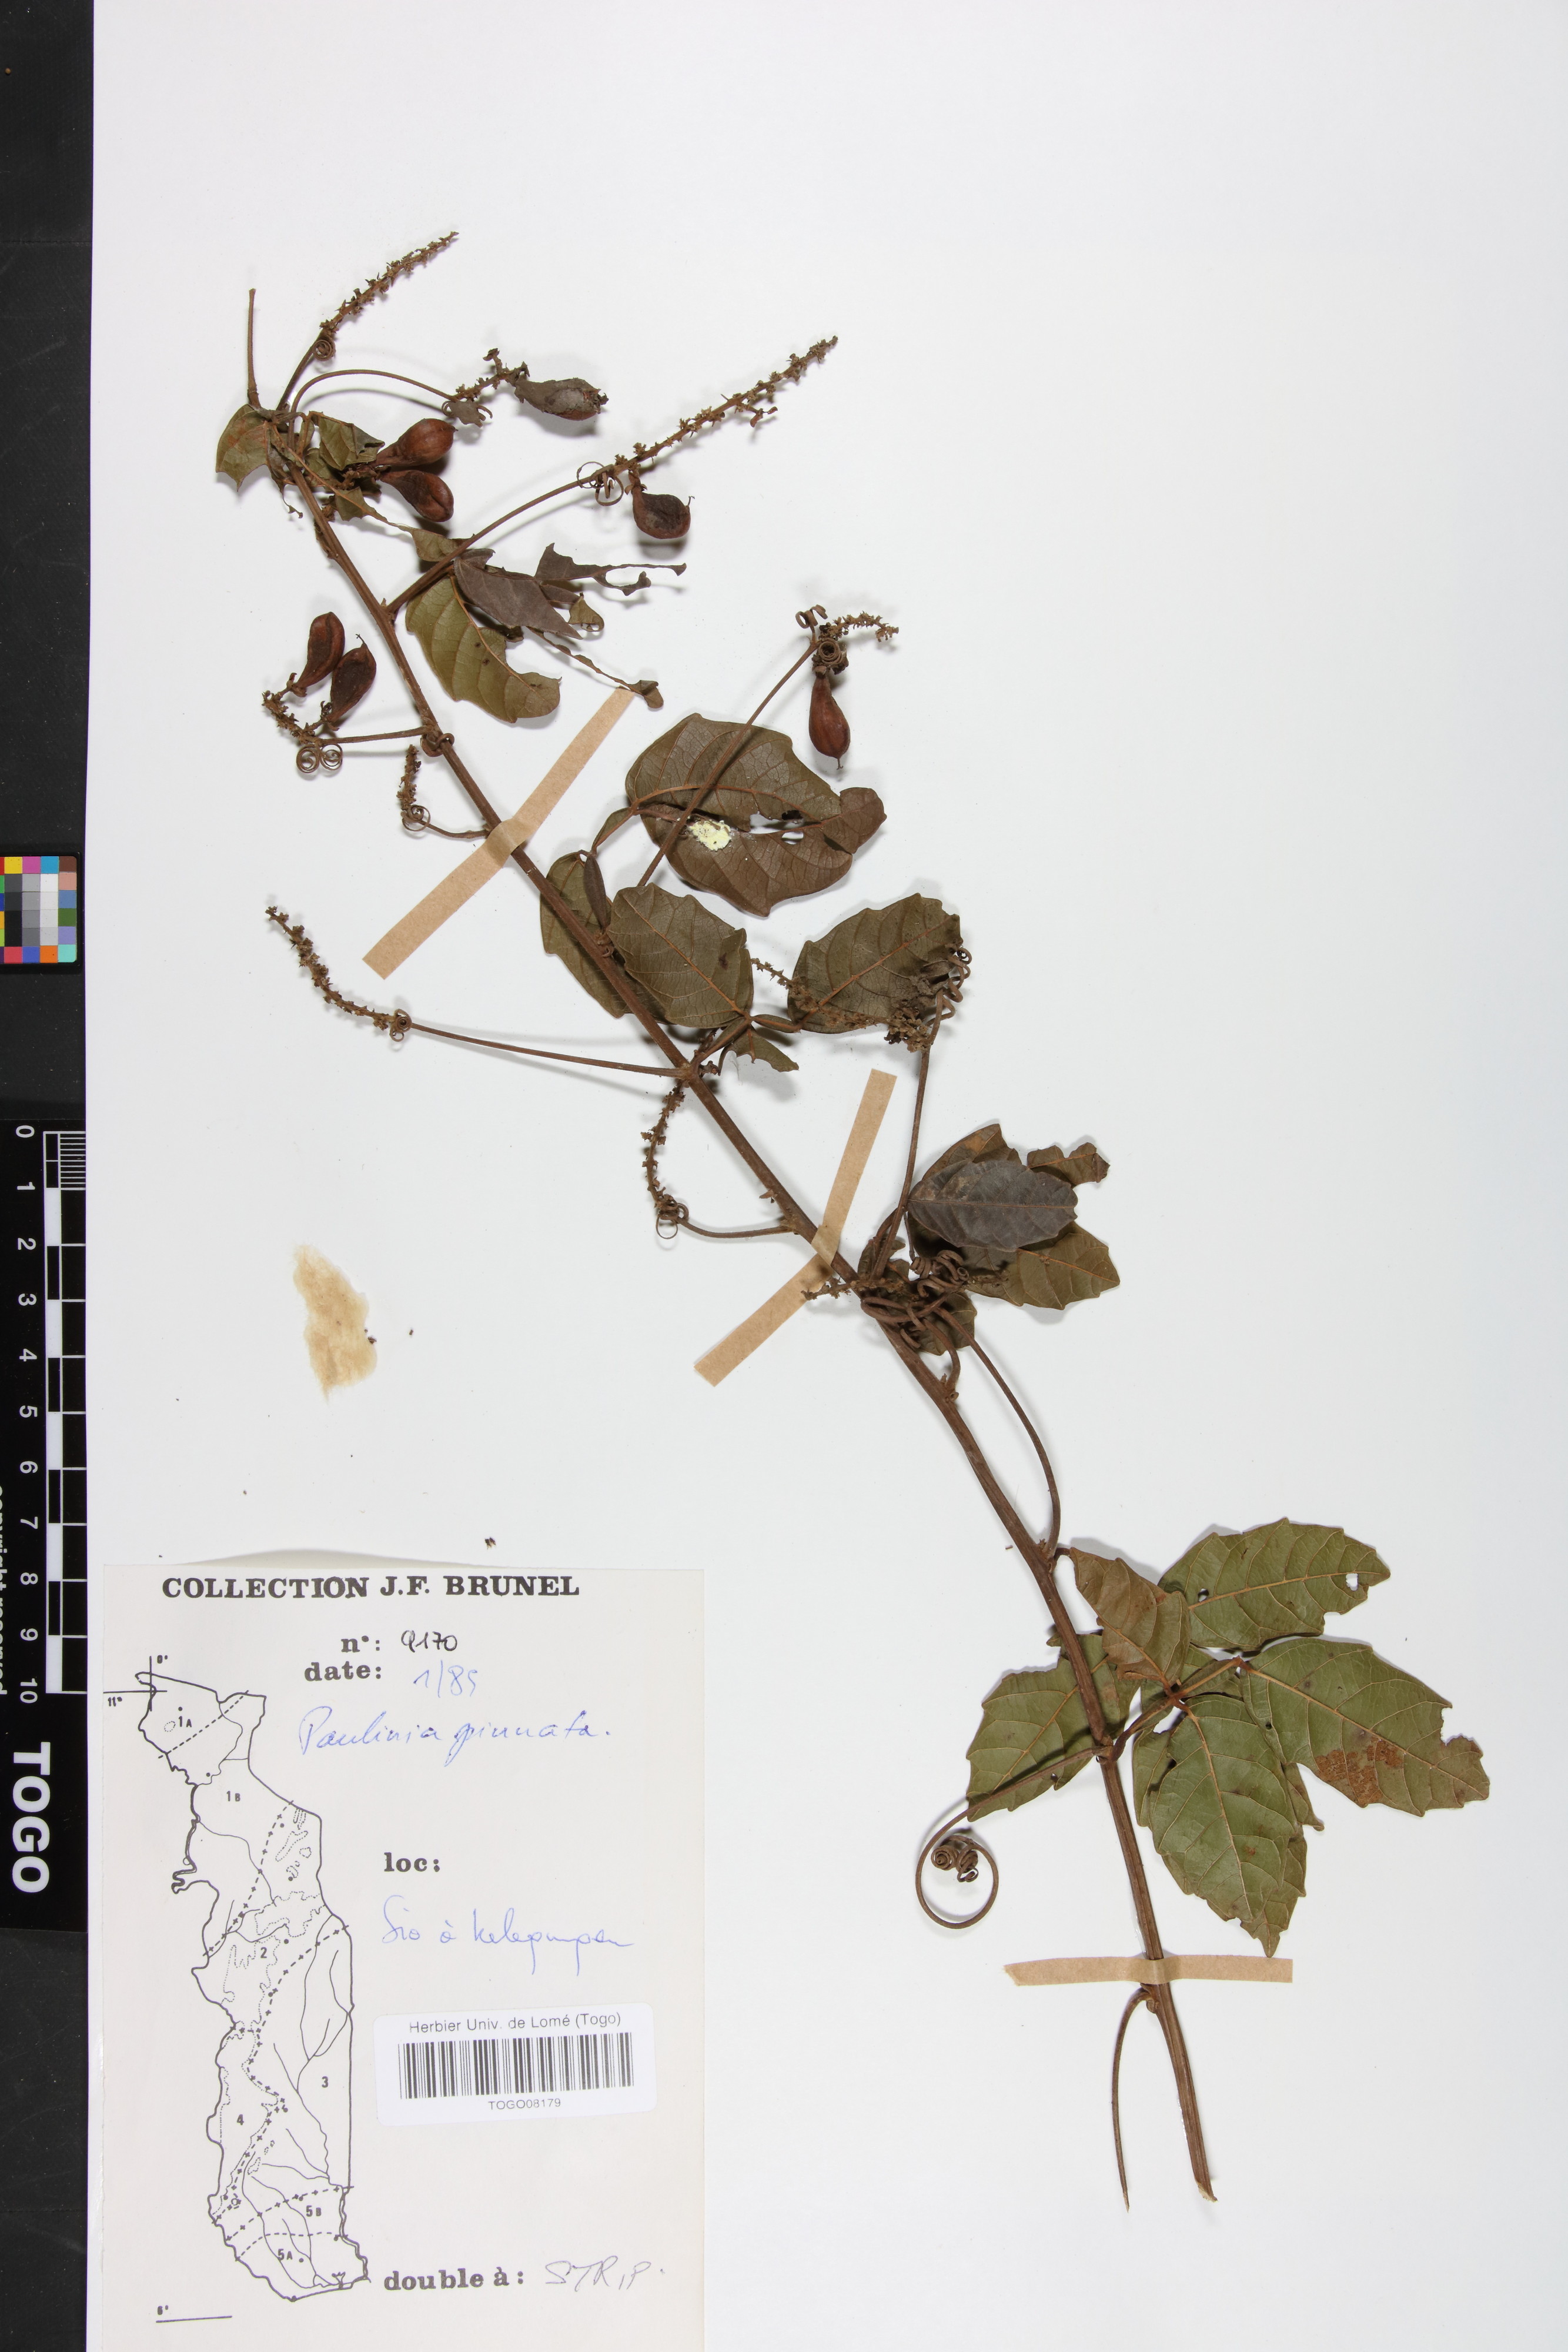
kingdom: Plantae
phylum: Tracheophyta
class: Magnoliopsida
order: Sapindales
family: Sapindaceae
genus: Paullinia
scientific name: Paullinia pinnata
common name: Barbasco
